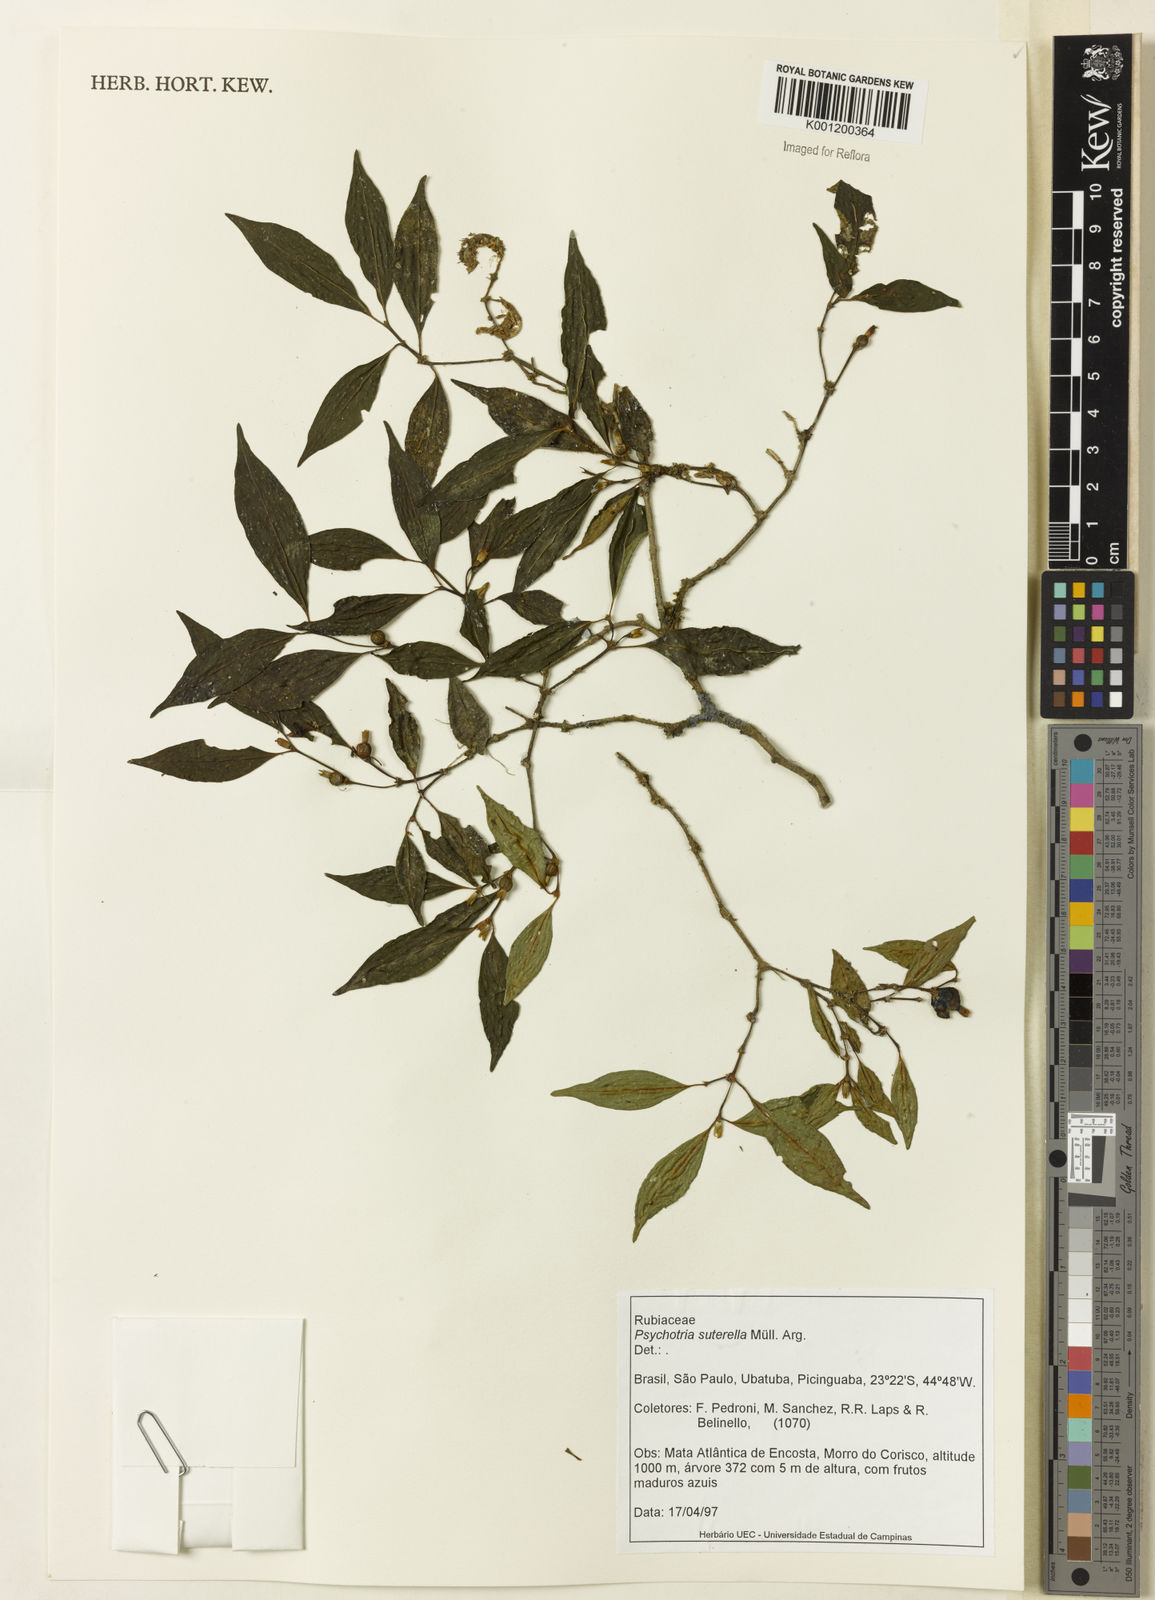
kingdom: Plantae
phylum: Tracheophyta
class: Magnoliopsida
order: Gentianales
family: Rubiaceae
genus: Psychotria
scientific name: Psychotria
